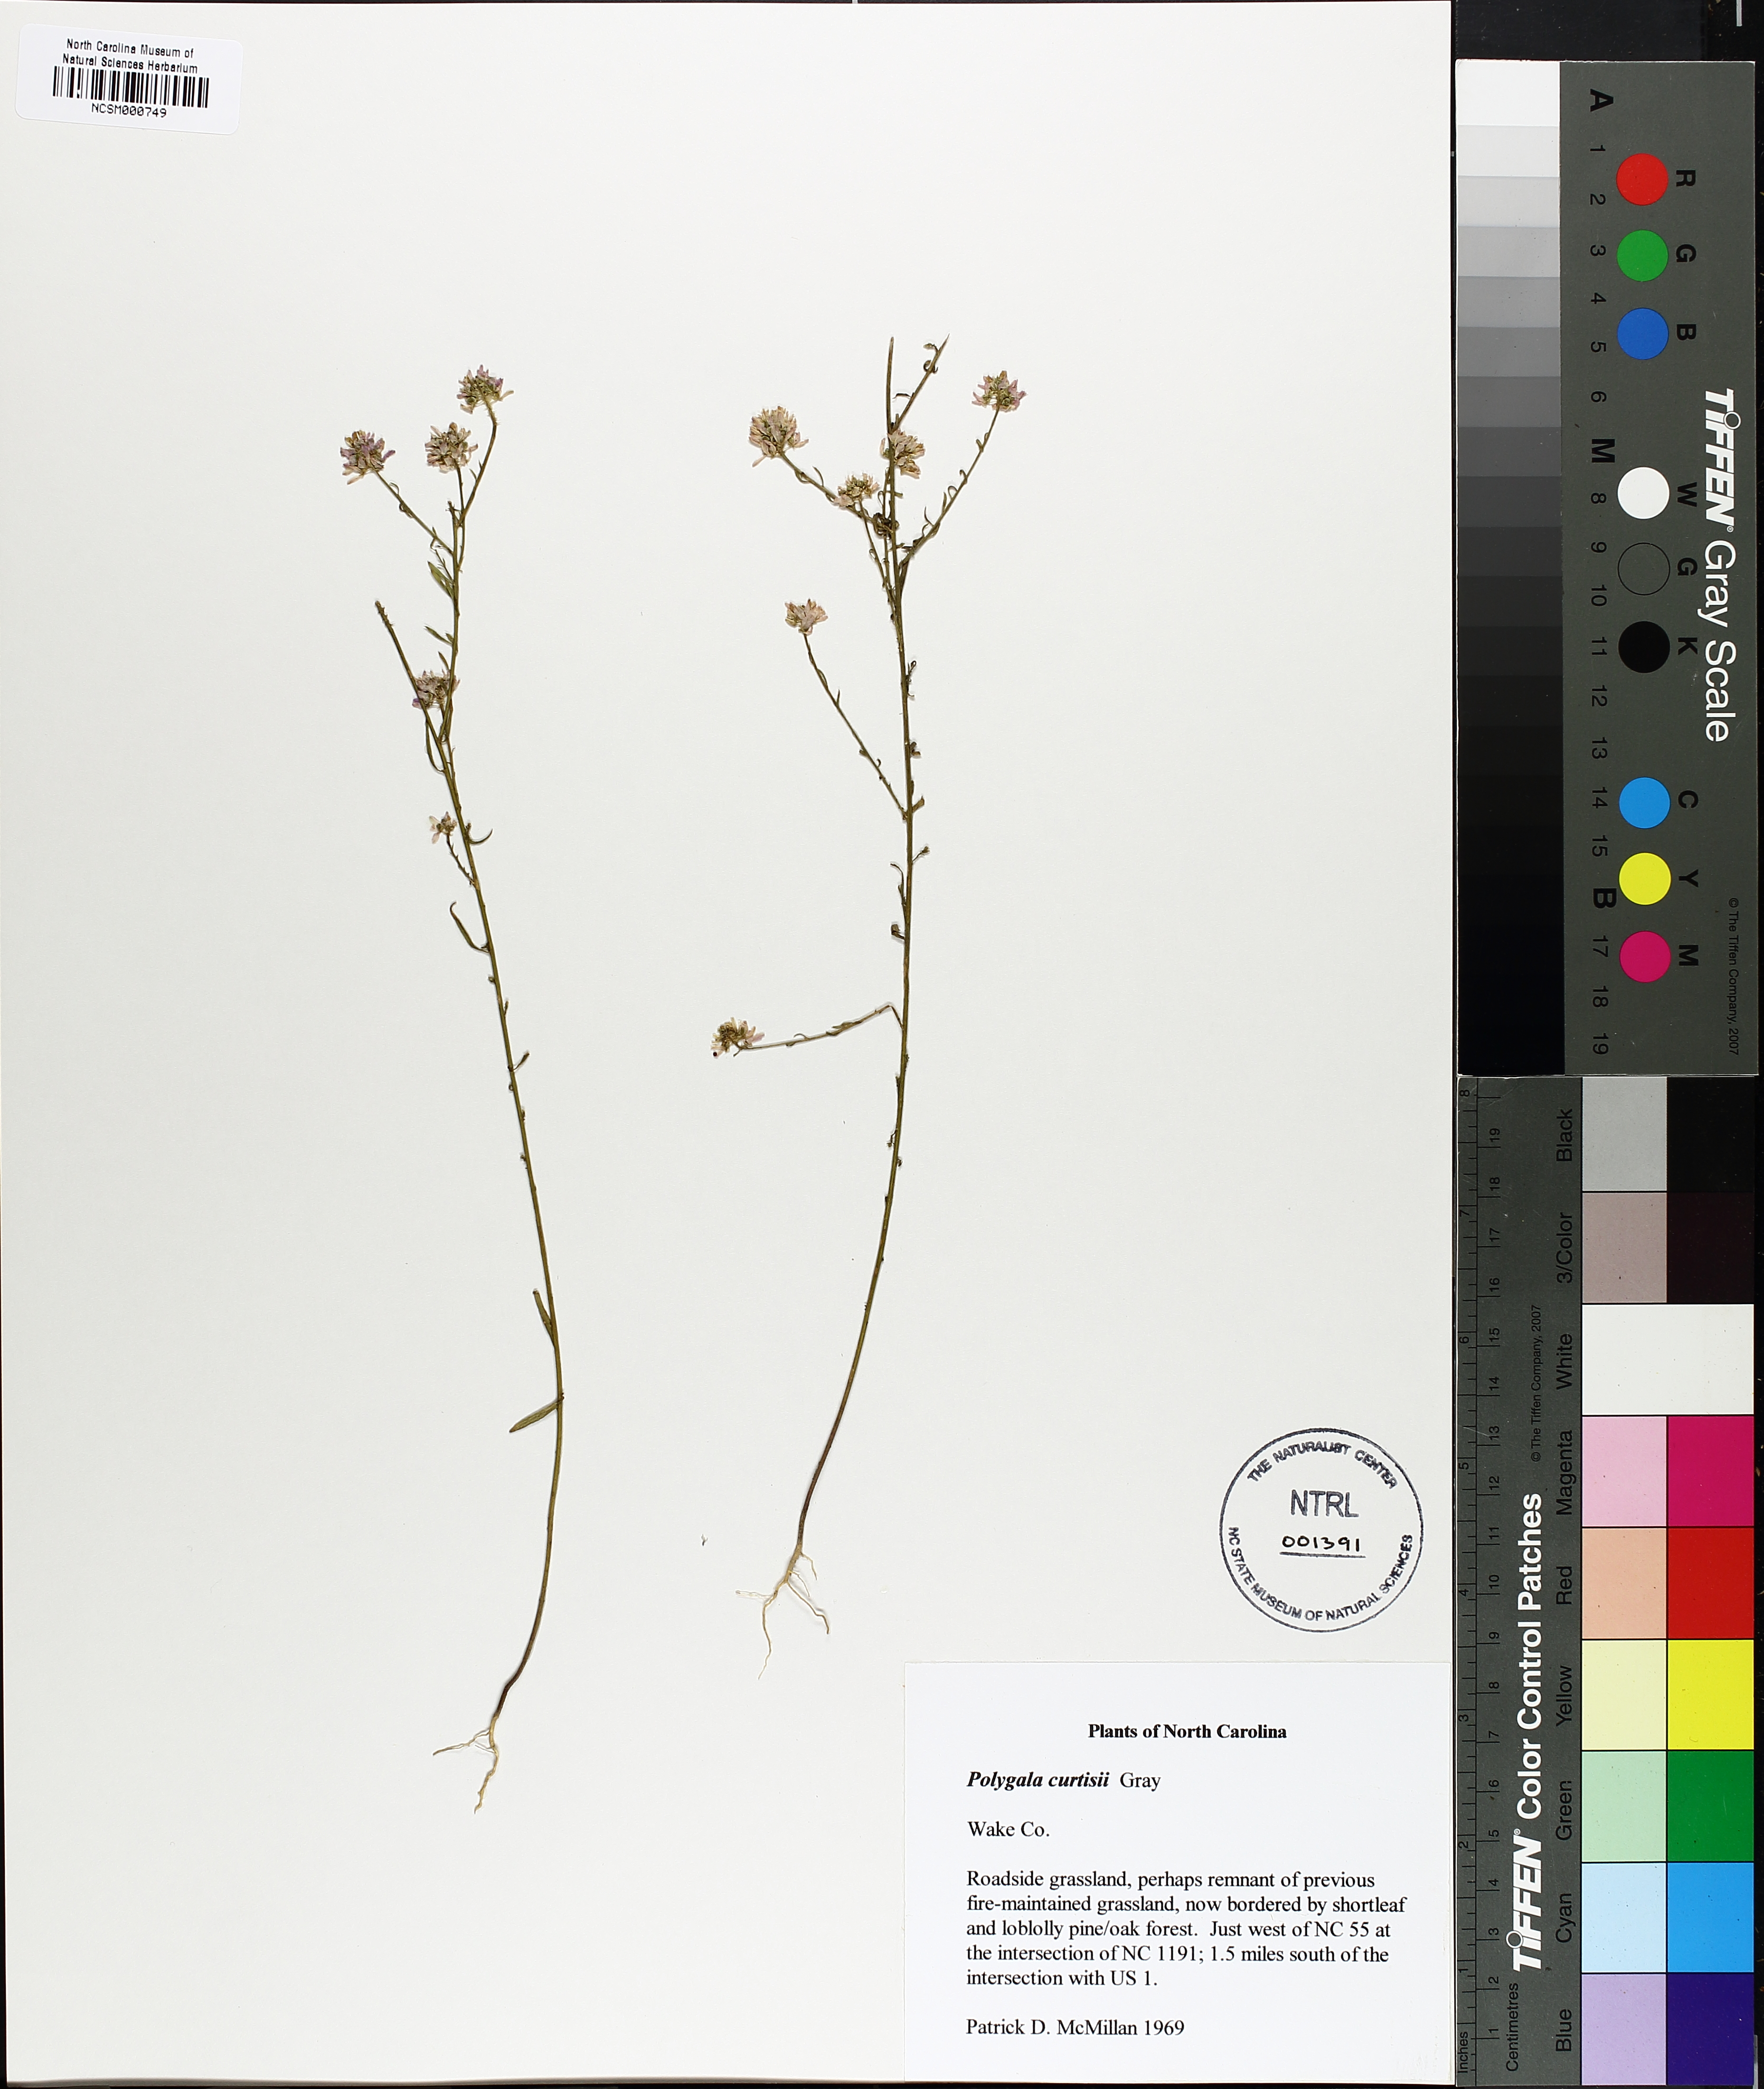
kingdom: Plantae
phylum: Tracheophyta
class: Magnoliopsida
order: Fabales
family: Polygalaceae
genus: Polygala
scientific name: Polygala curtissii
